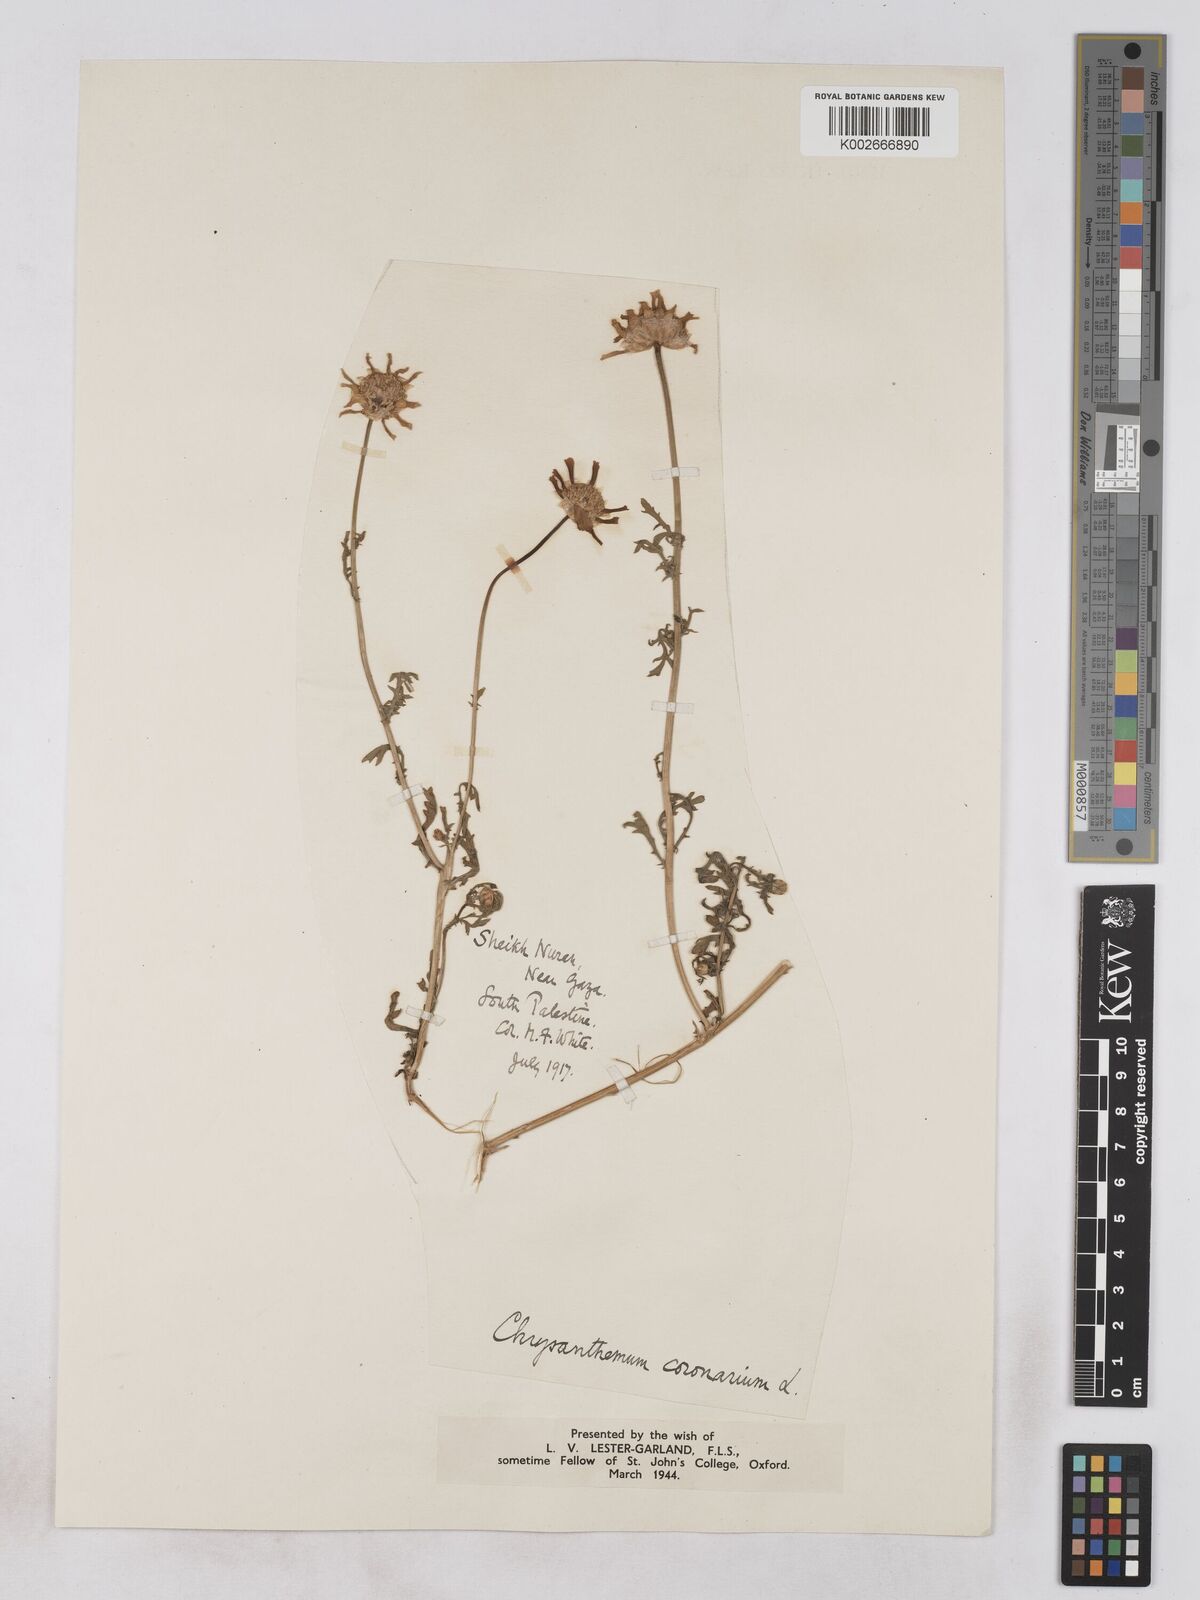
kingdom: Plantae
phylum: Tracheophyta
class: Magnoliopsida
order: Asterales
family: Asteraceae
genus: Glebionis
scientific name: Glebionis coronaria
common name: Crowndaisy
